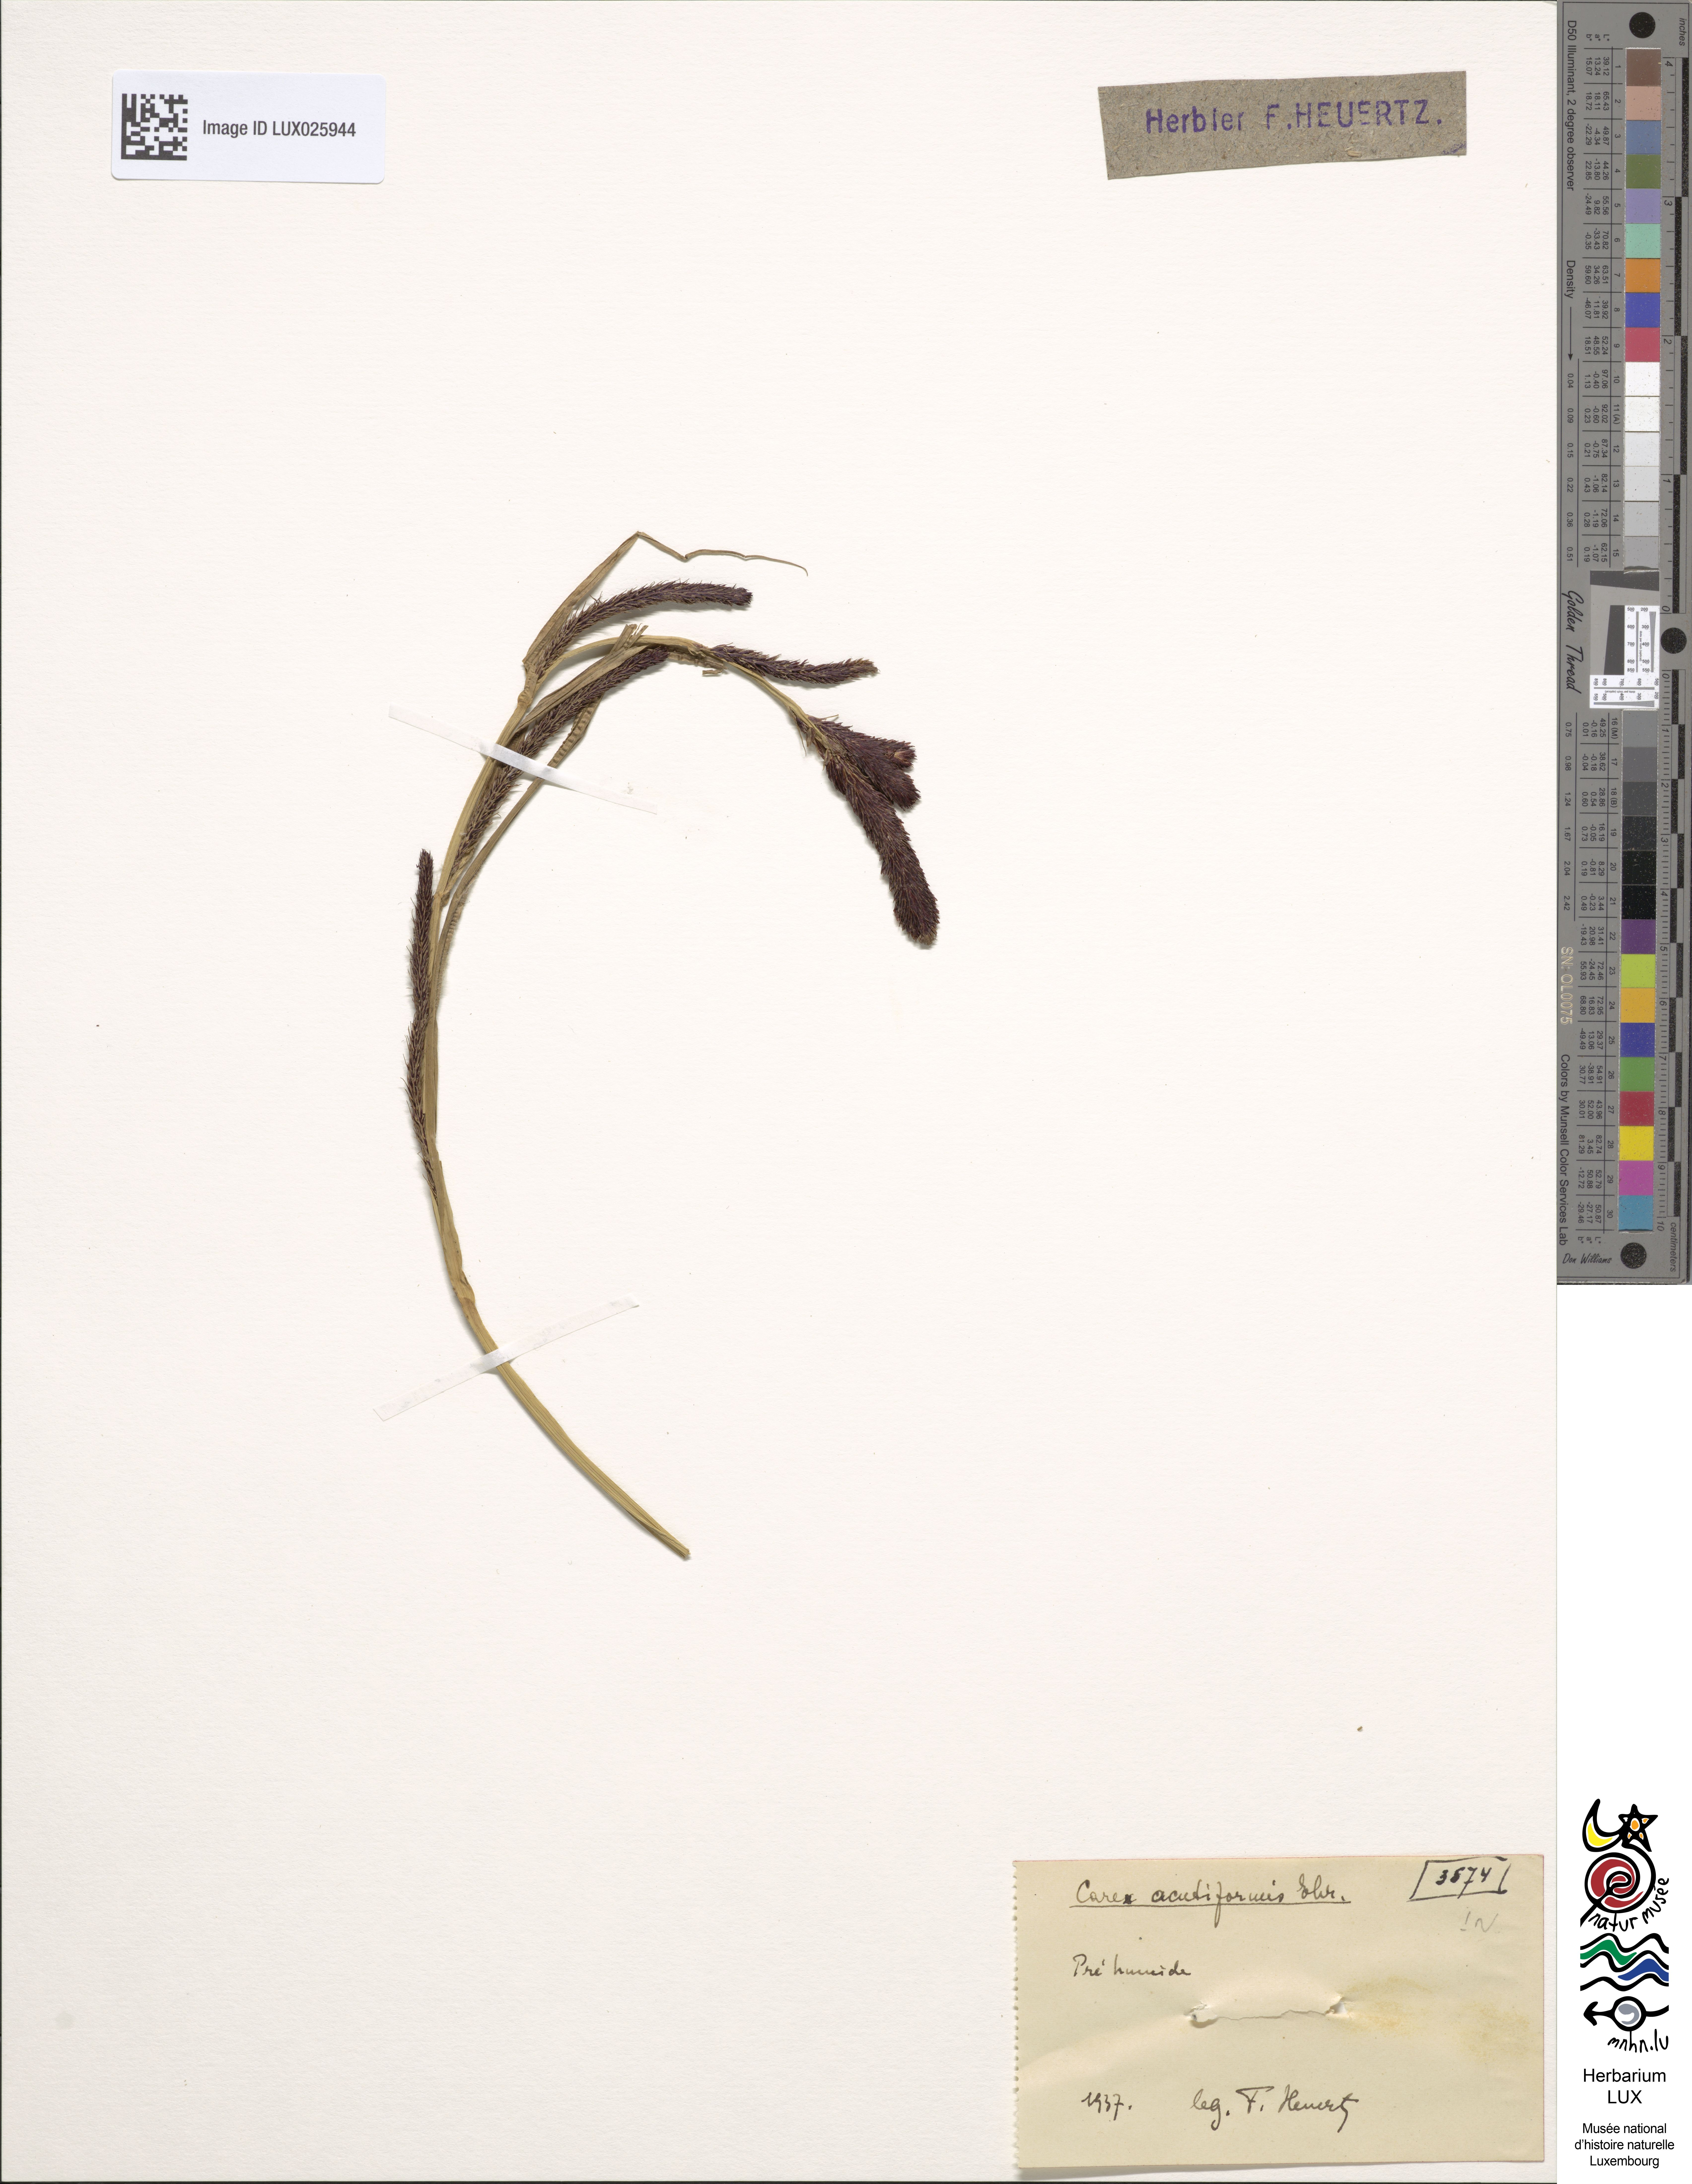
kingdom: Plantae
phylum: Tracheophyta
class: Liliopsida
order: Poales
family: Cyperaceae
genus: Carex
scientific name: Carex acutiformis
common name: Lesser pond-sedge
